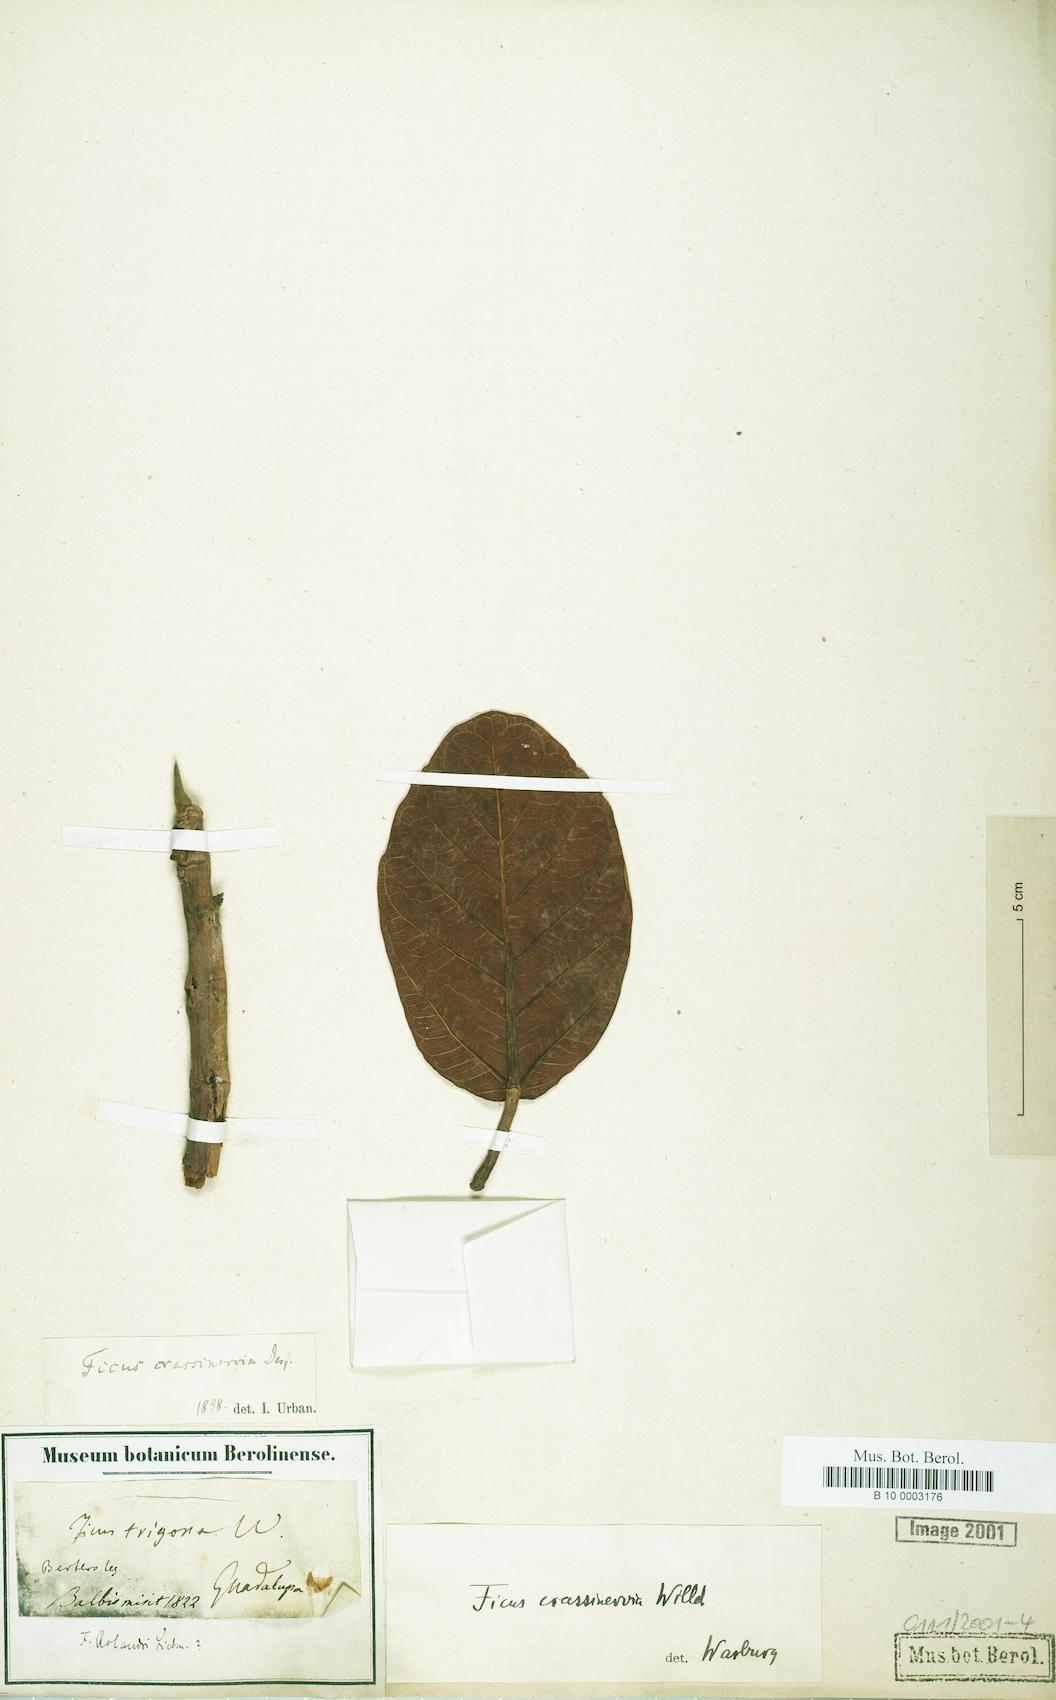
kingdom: Plantae
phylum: Tracheophyta
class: Magnoliopsida
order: Rosales
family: Moraceae
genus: Ficus
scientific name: Ficus crassinervia
